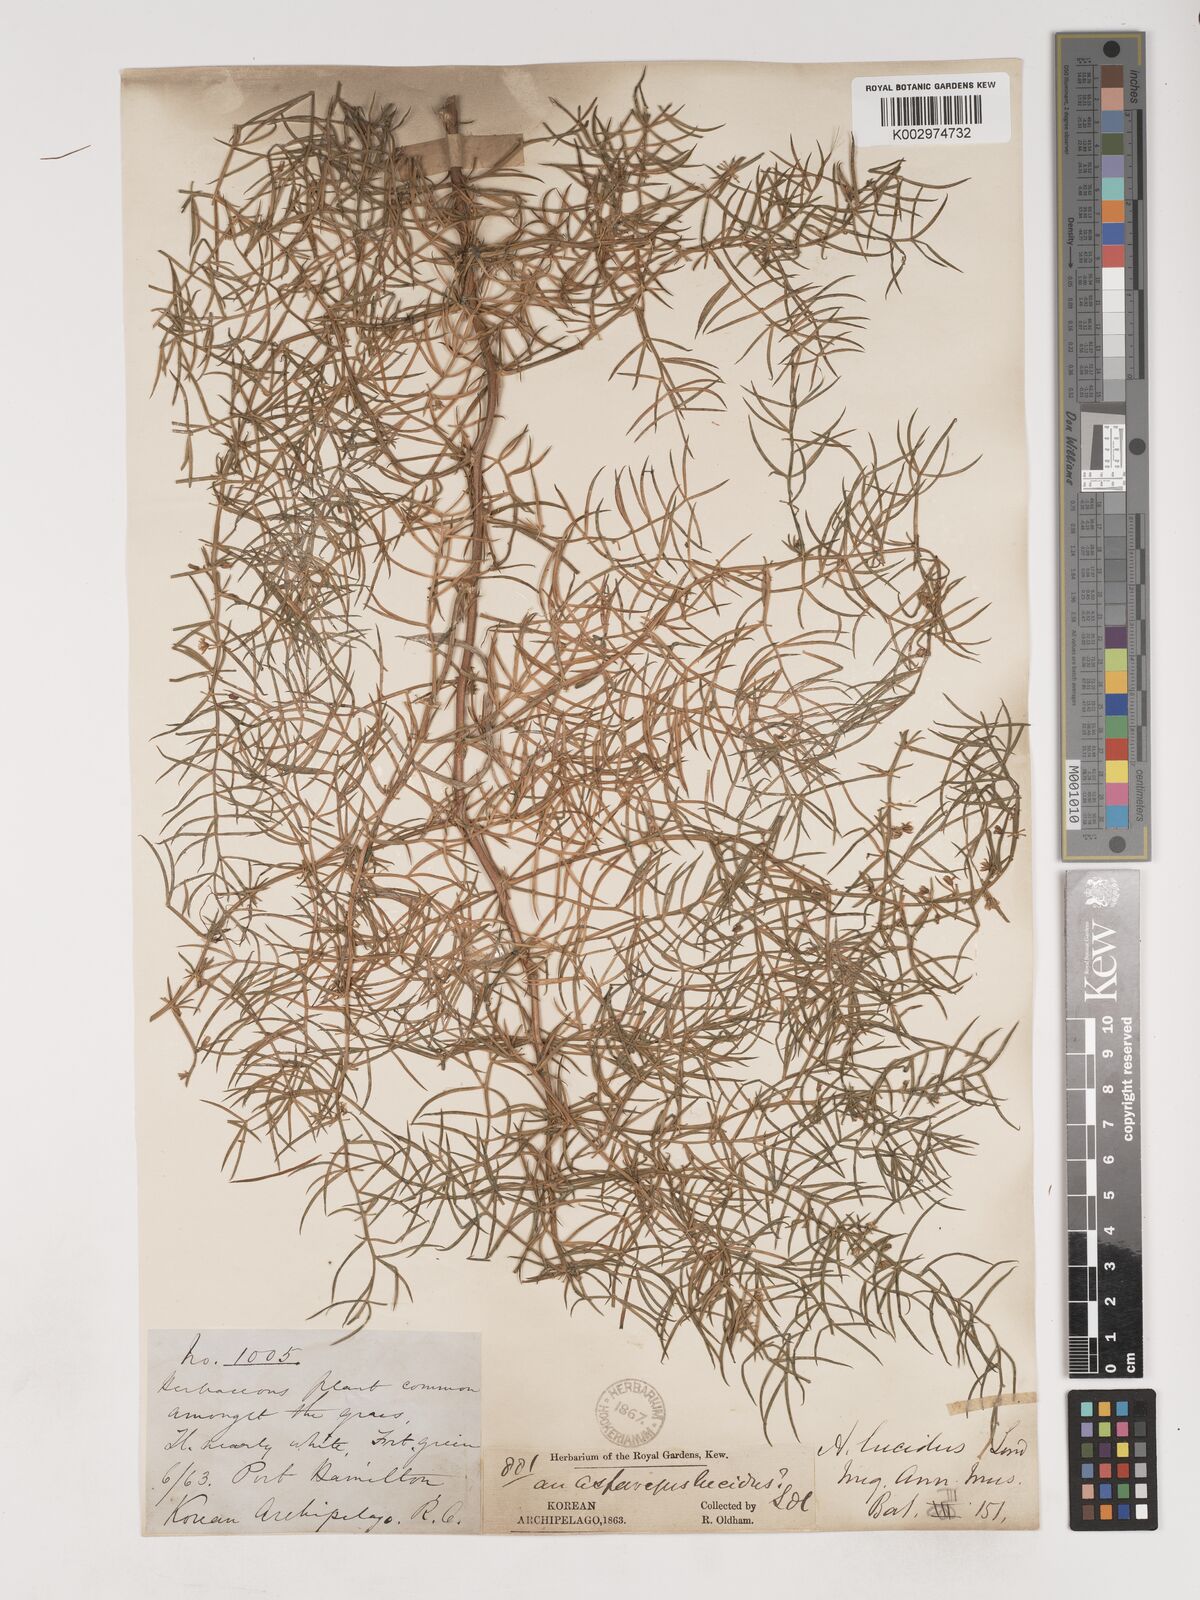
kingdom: Plantae
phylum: Tracheophyta
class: Liliopsida
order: Asparagales
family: Asparagaceae
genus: Asparagus
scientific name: Asparagus cochinchinensis
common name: Chinese asparagus
